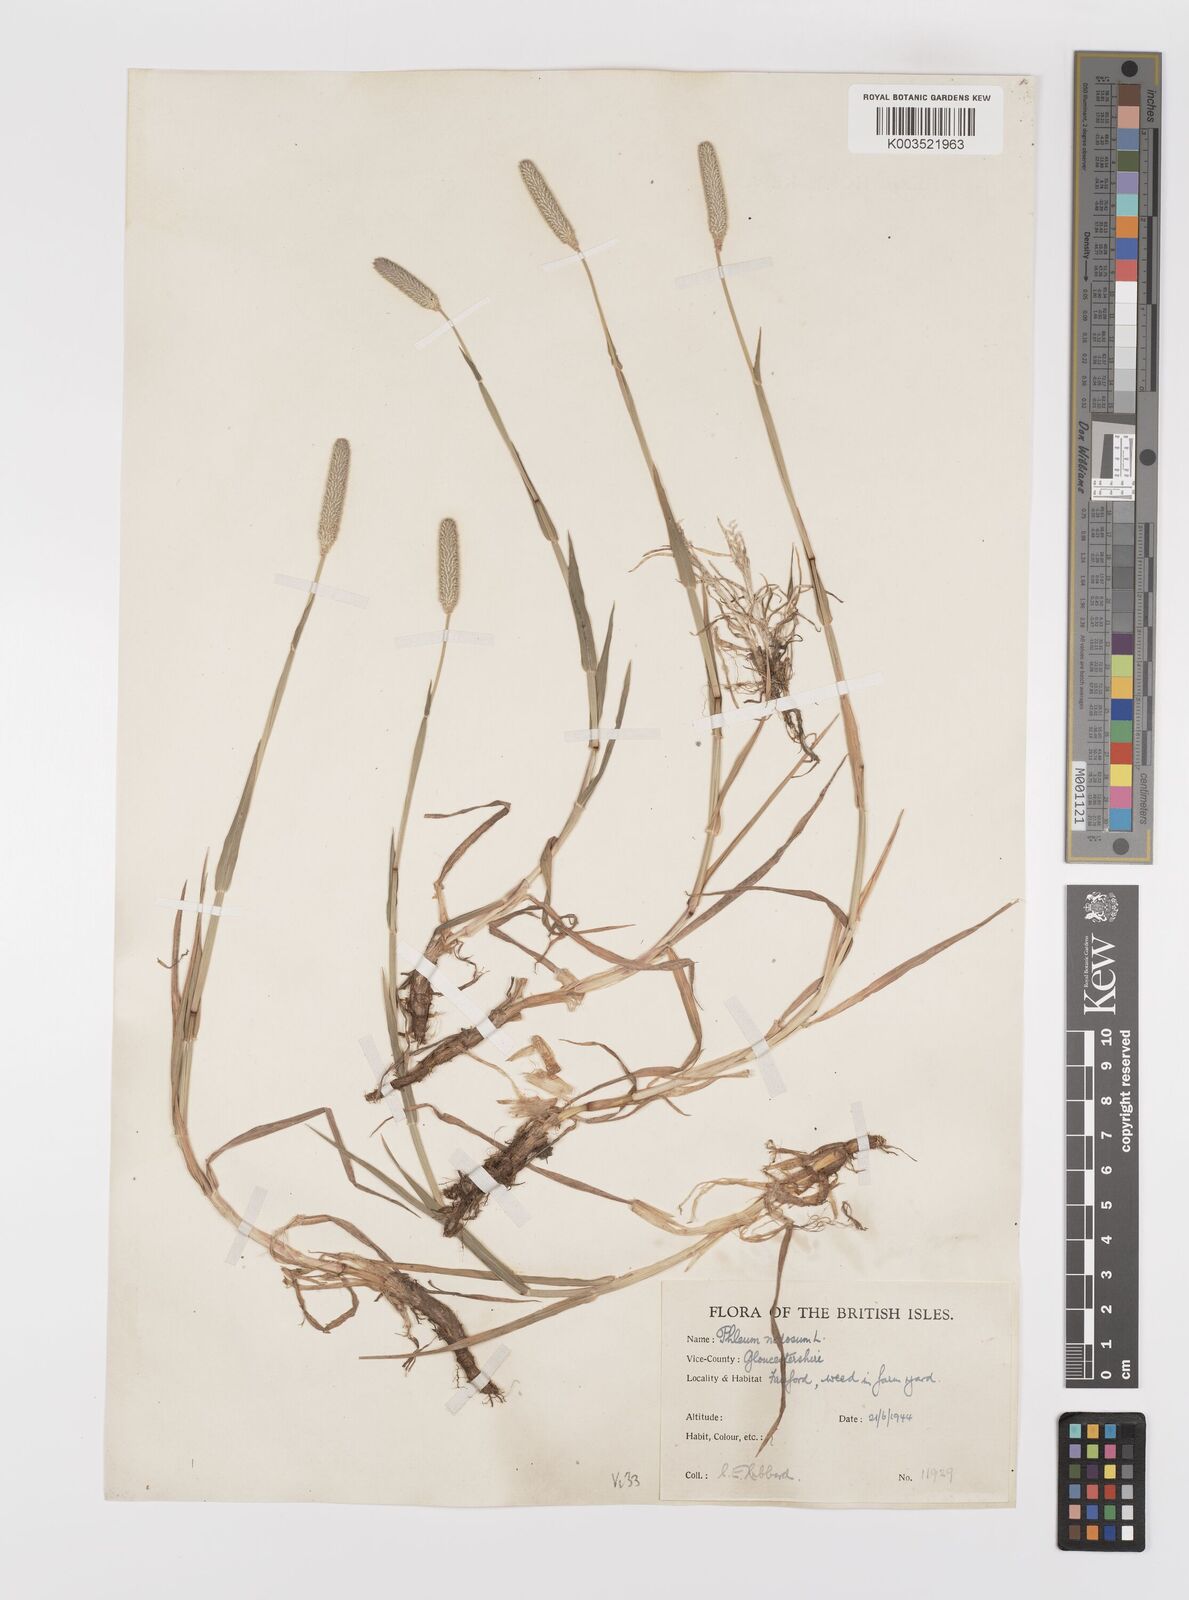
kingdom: Plantae
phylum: Tracheophyta
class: Liliopsida
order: Poales
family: Poaceae
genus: Phleum
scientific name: Phleum bertolonii
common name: Smaller cat's-tail
